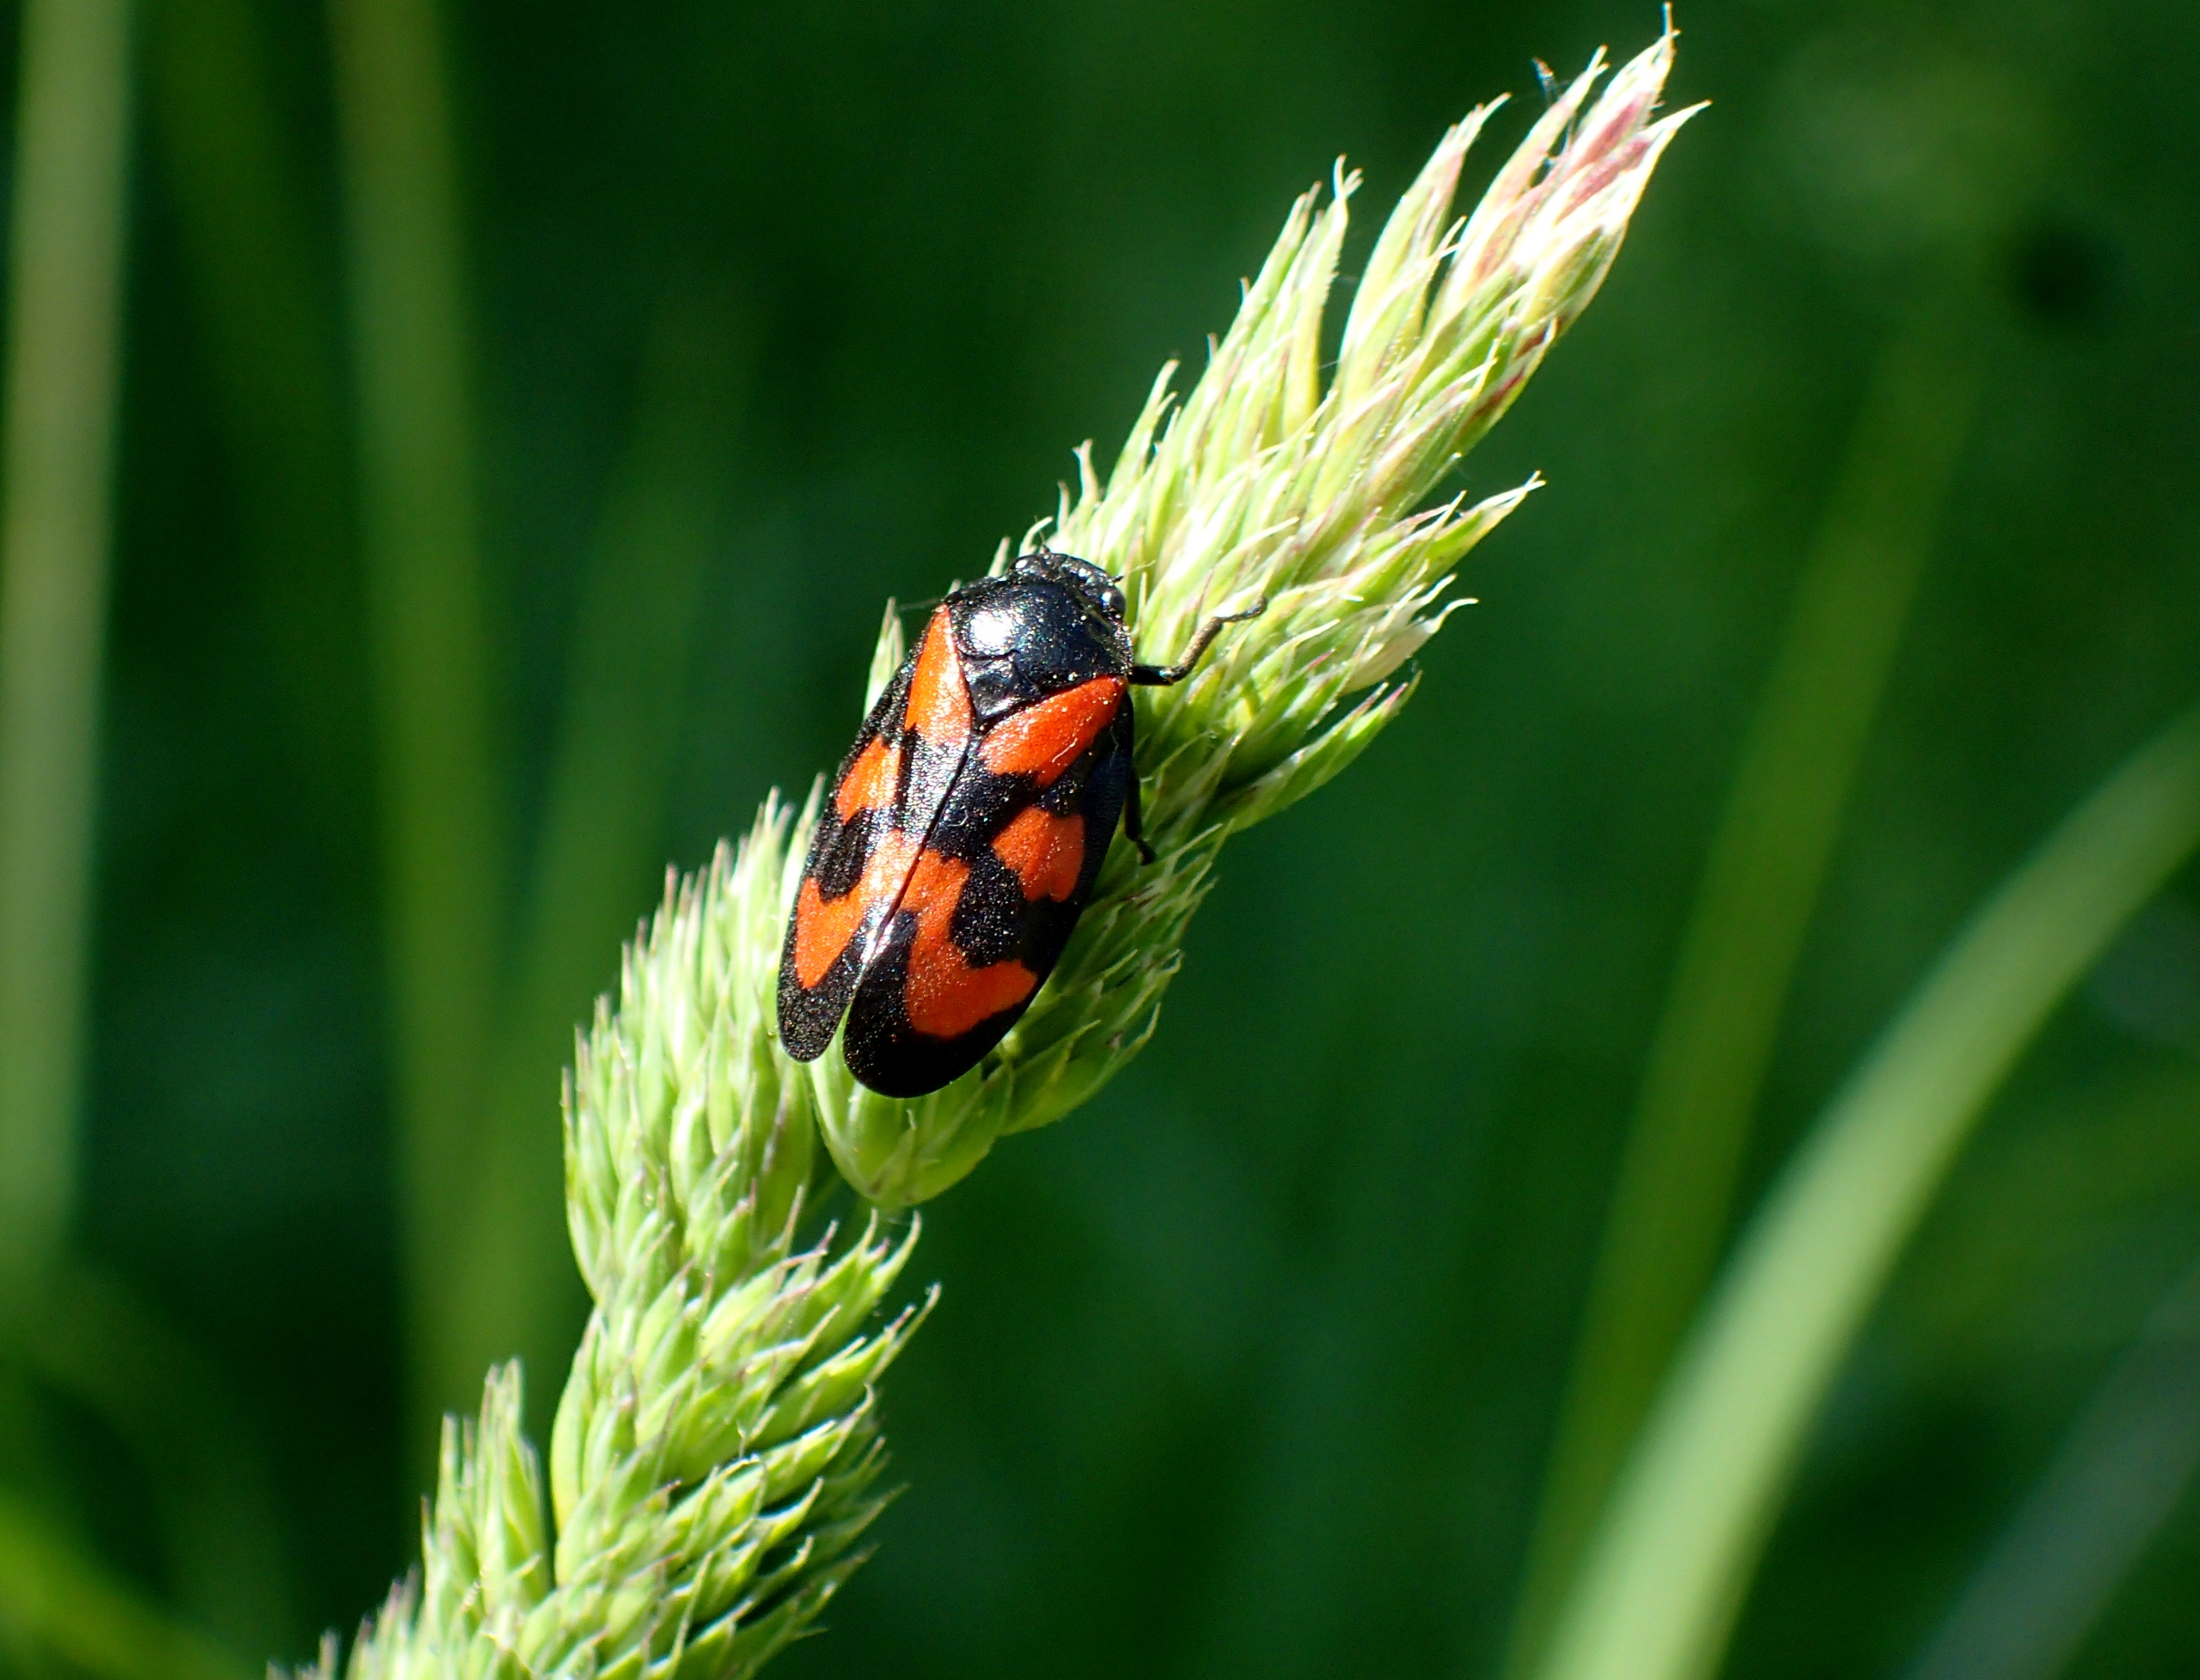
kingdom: Animalia
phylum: Arthropoda
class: Insecta
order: Hemiptera
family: Cercopidae
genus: Cercopis
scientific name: Cercopis vulnerata
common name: Blodcikade
